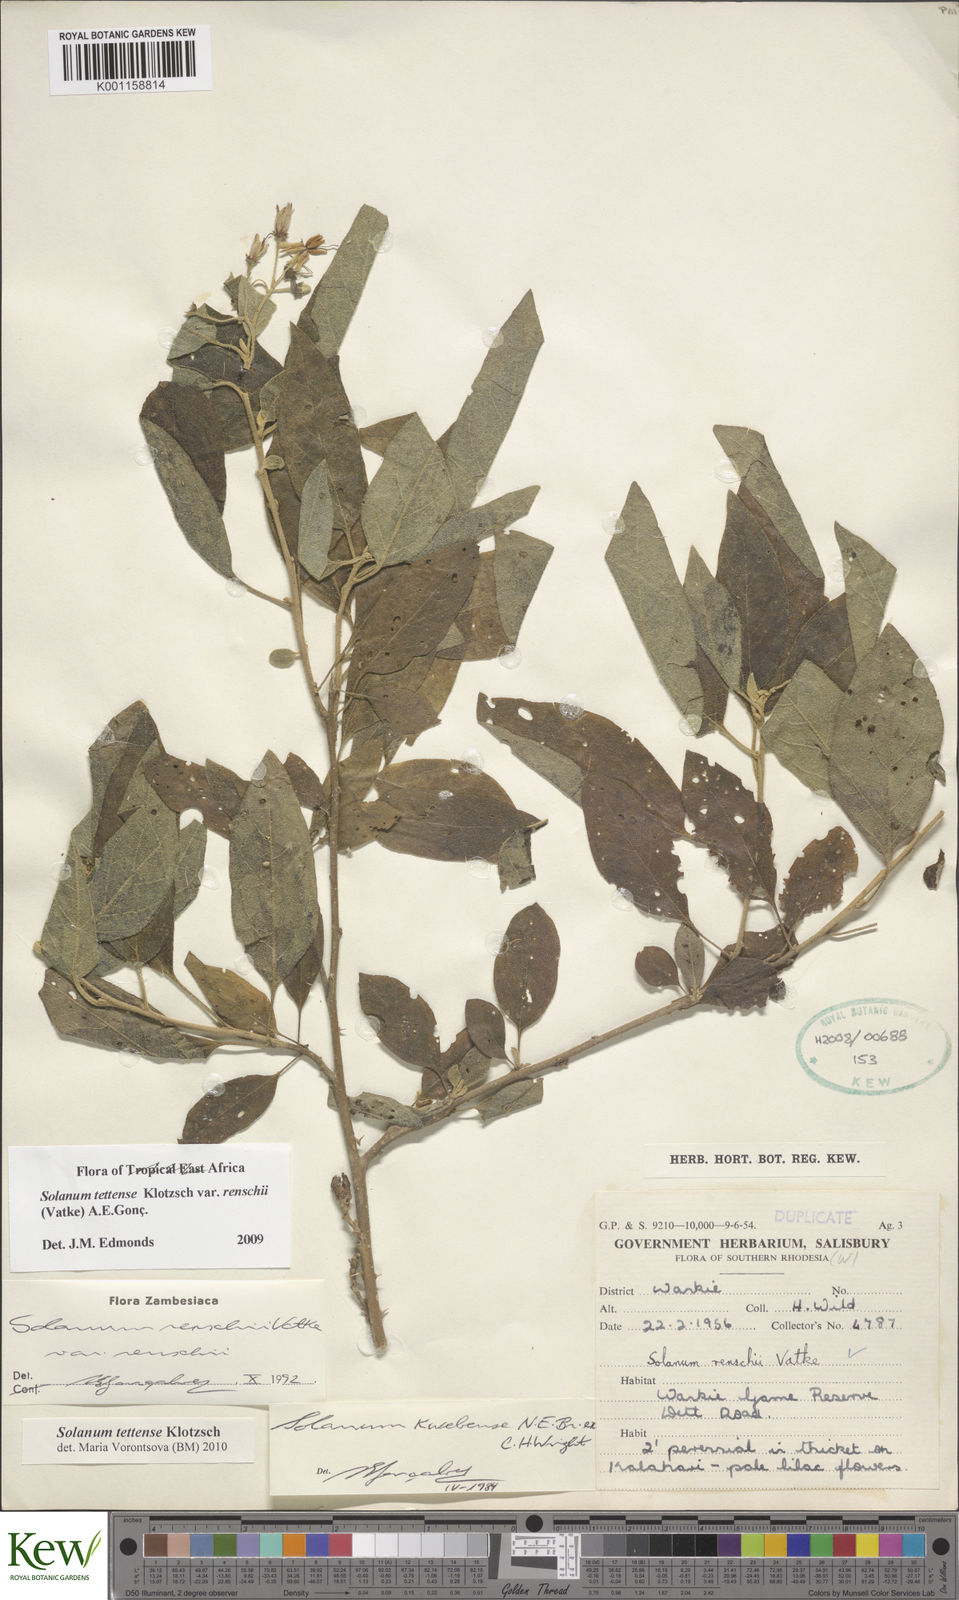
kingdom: Plantae
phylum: Tracheophyta
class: Magnoliopsida
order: Solanales
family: Solanaceae
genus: Solanum
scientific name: Solanum tettense
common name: Mozambique bitter apple
